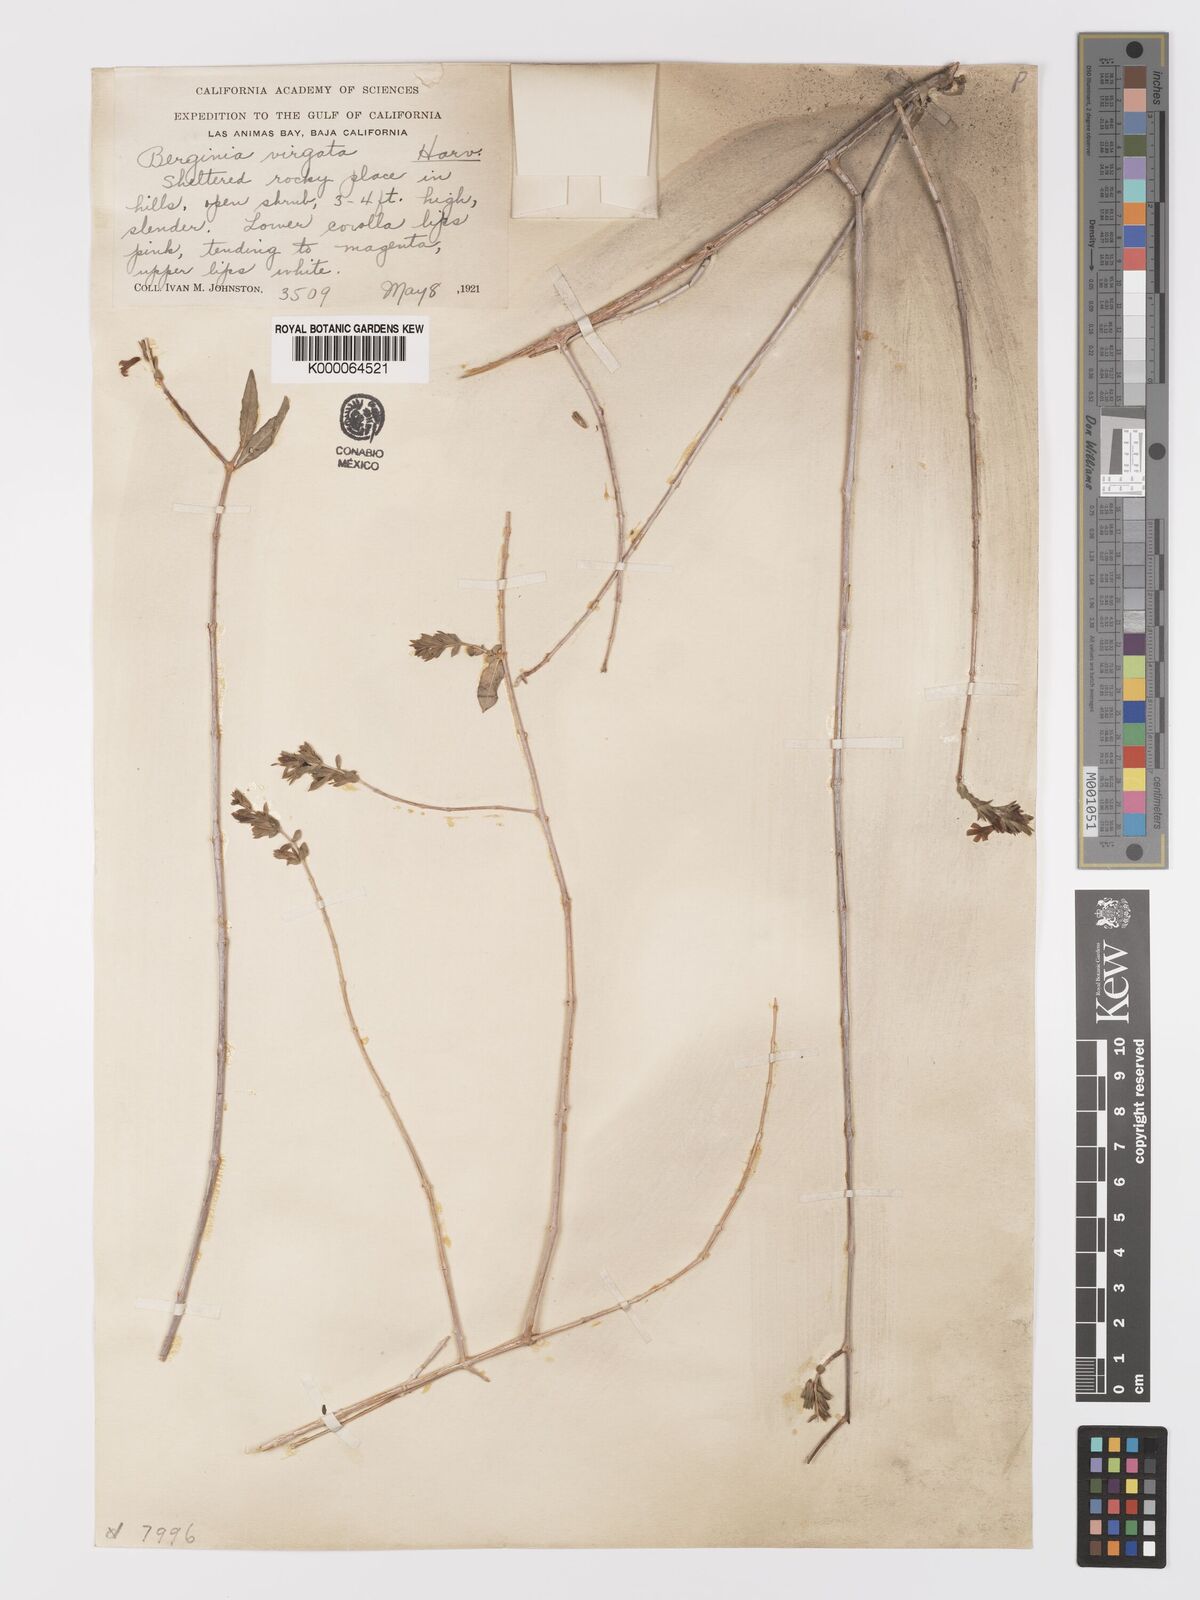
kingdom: Plantae
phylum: Tracheophyta
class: Magnoliopsida
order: Lamiales
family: Acanthaceae
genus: Holographis
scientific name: Holographis virgata
